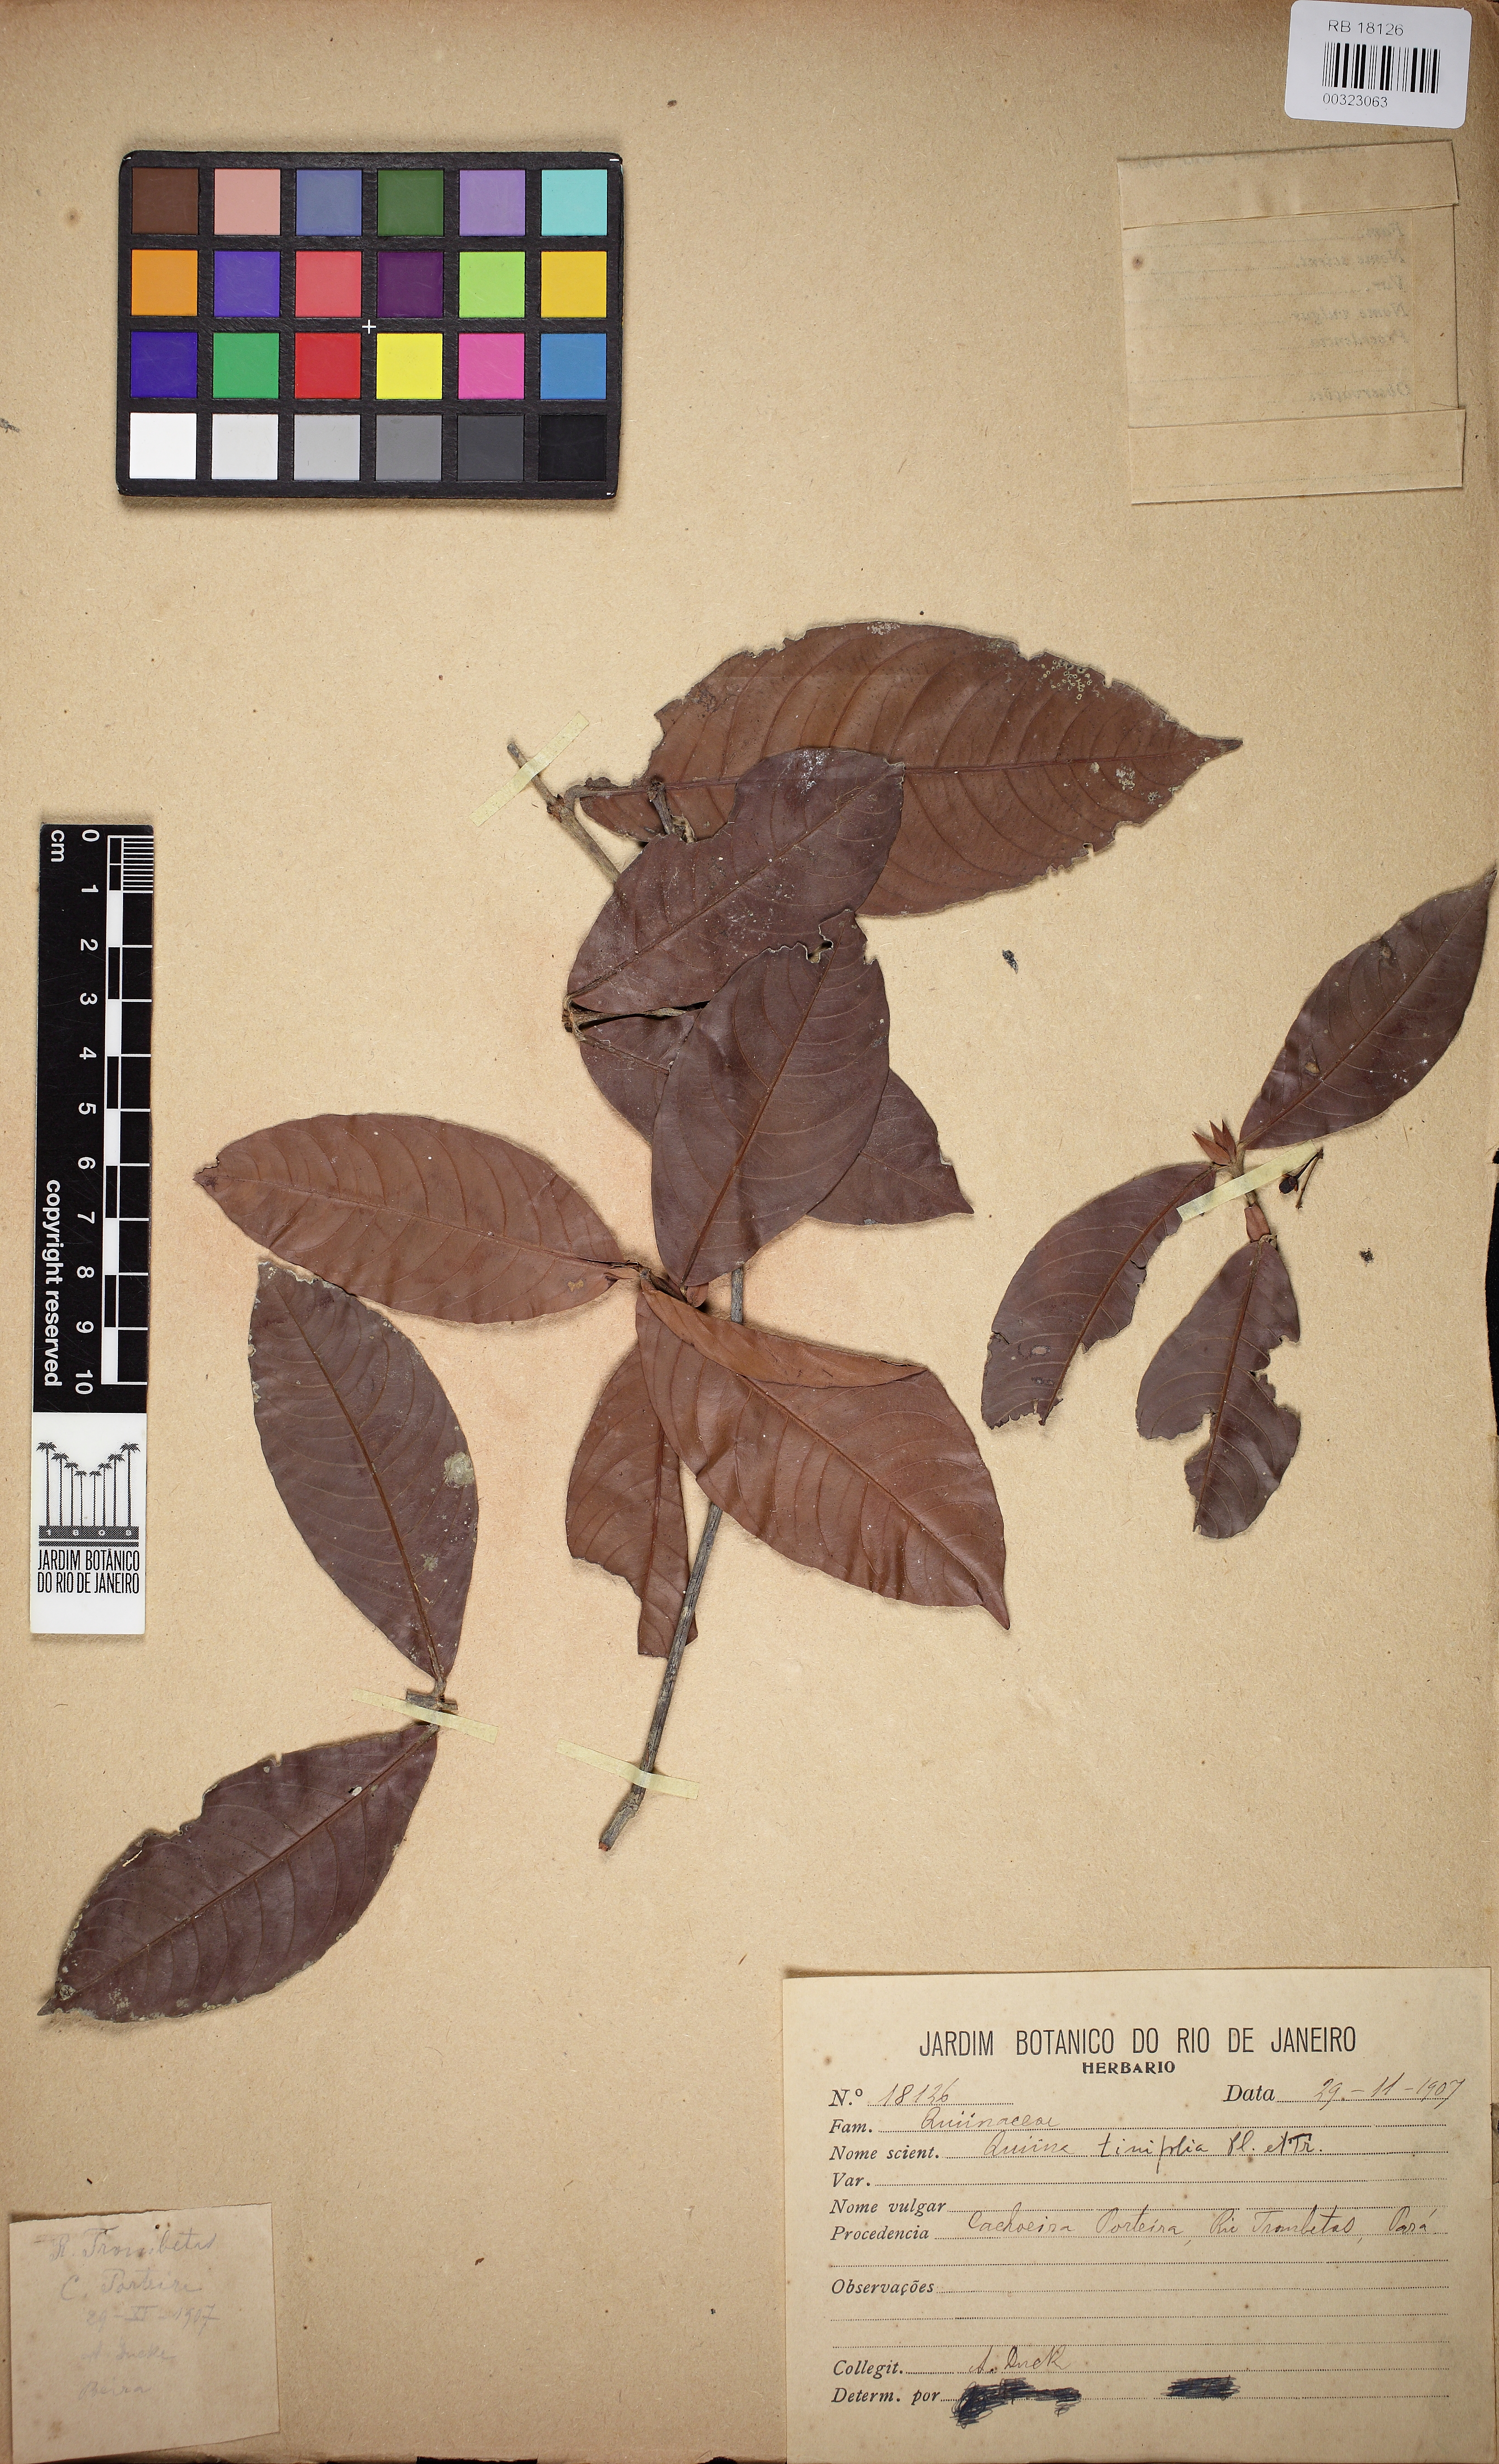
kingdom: Plantae
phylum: Tracheophyta
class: Magnoliopsida
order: Malpighiales
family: Quiinaceae
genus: Quiina
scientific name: Quiina tinifolia
